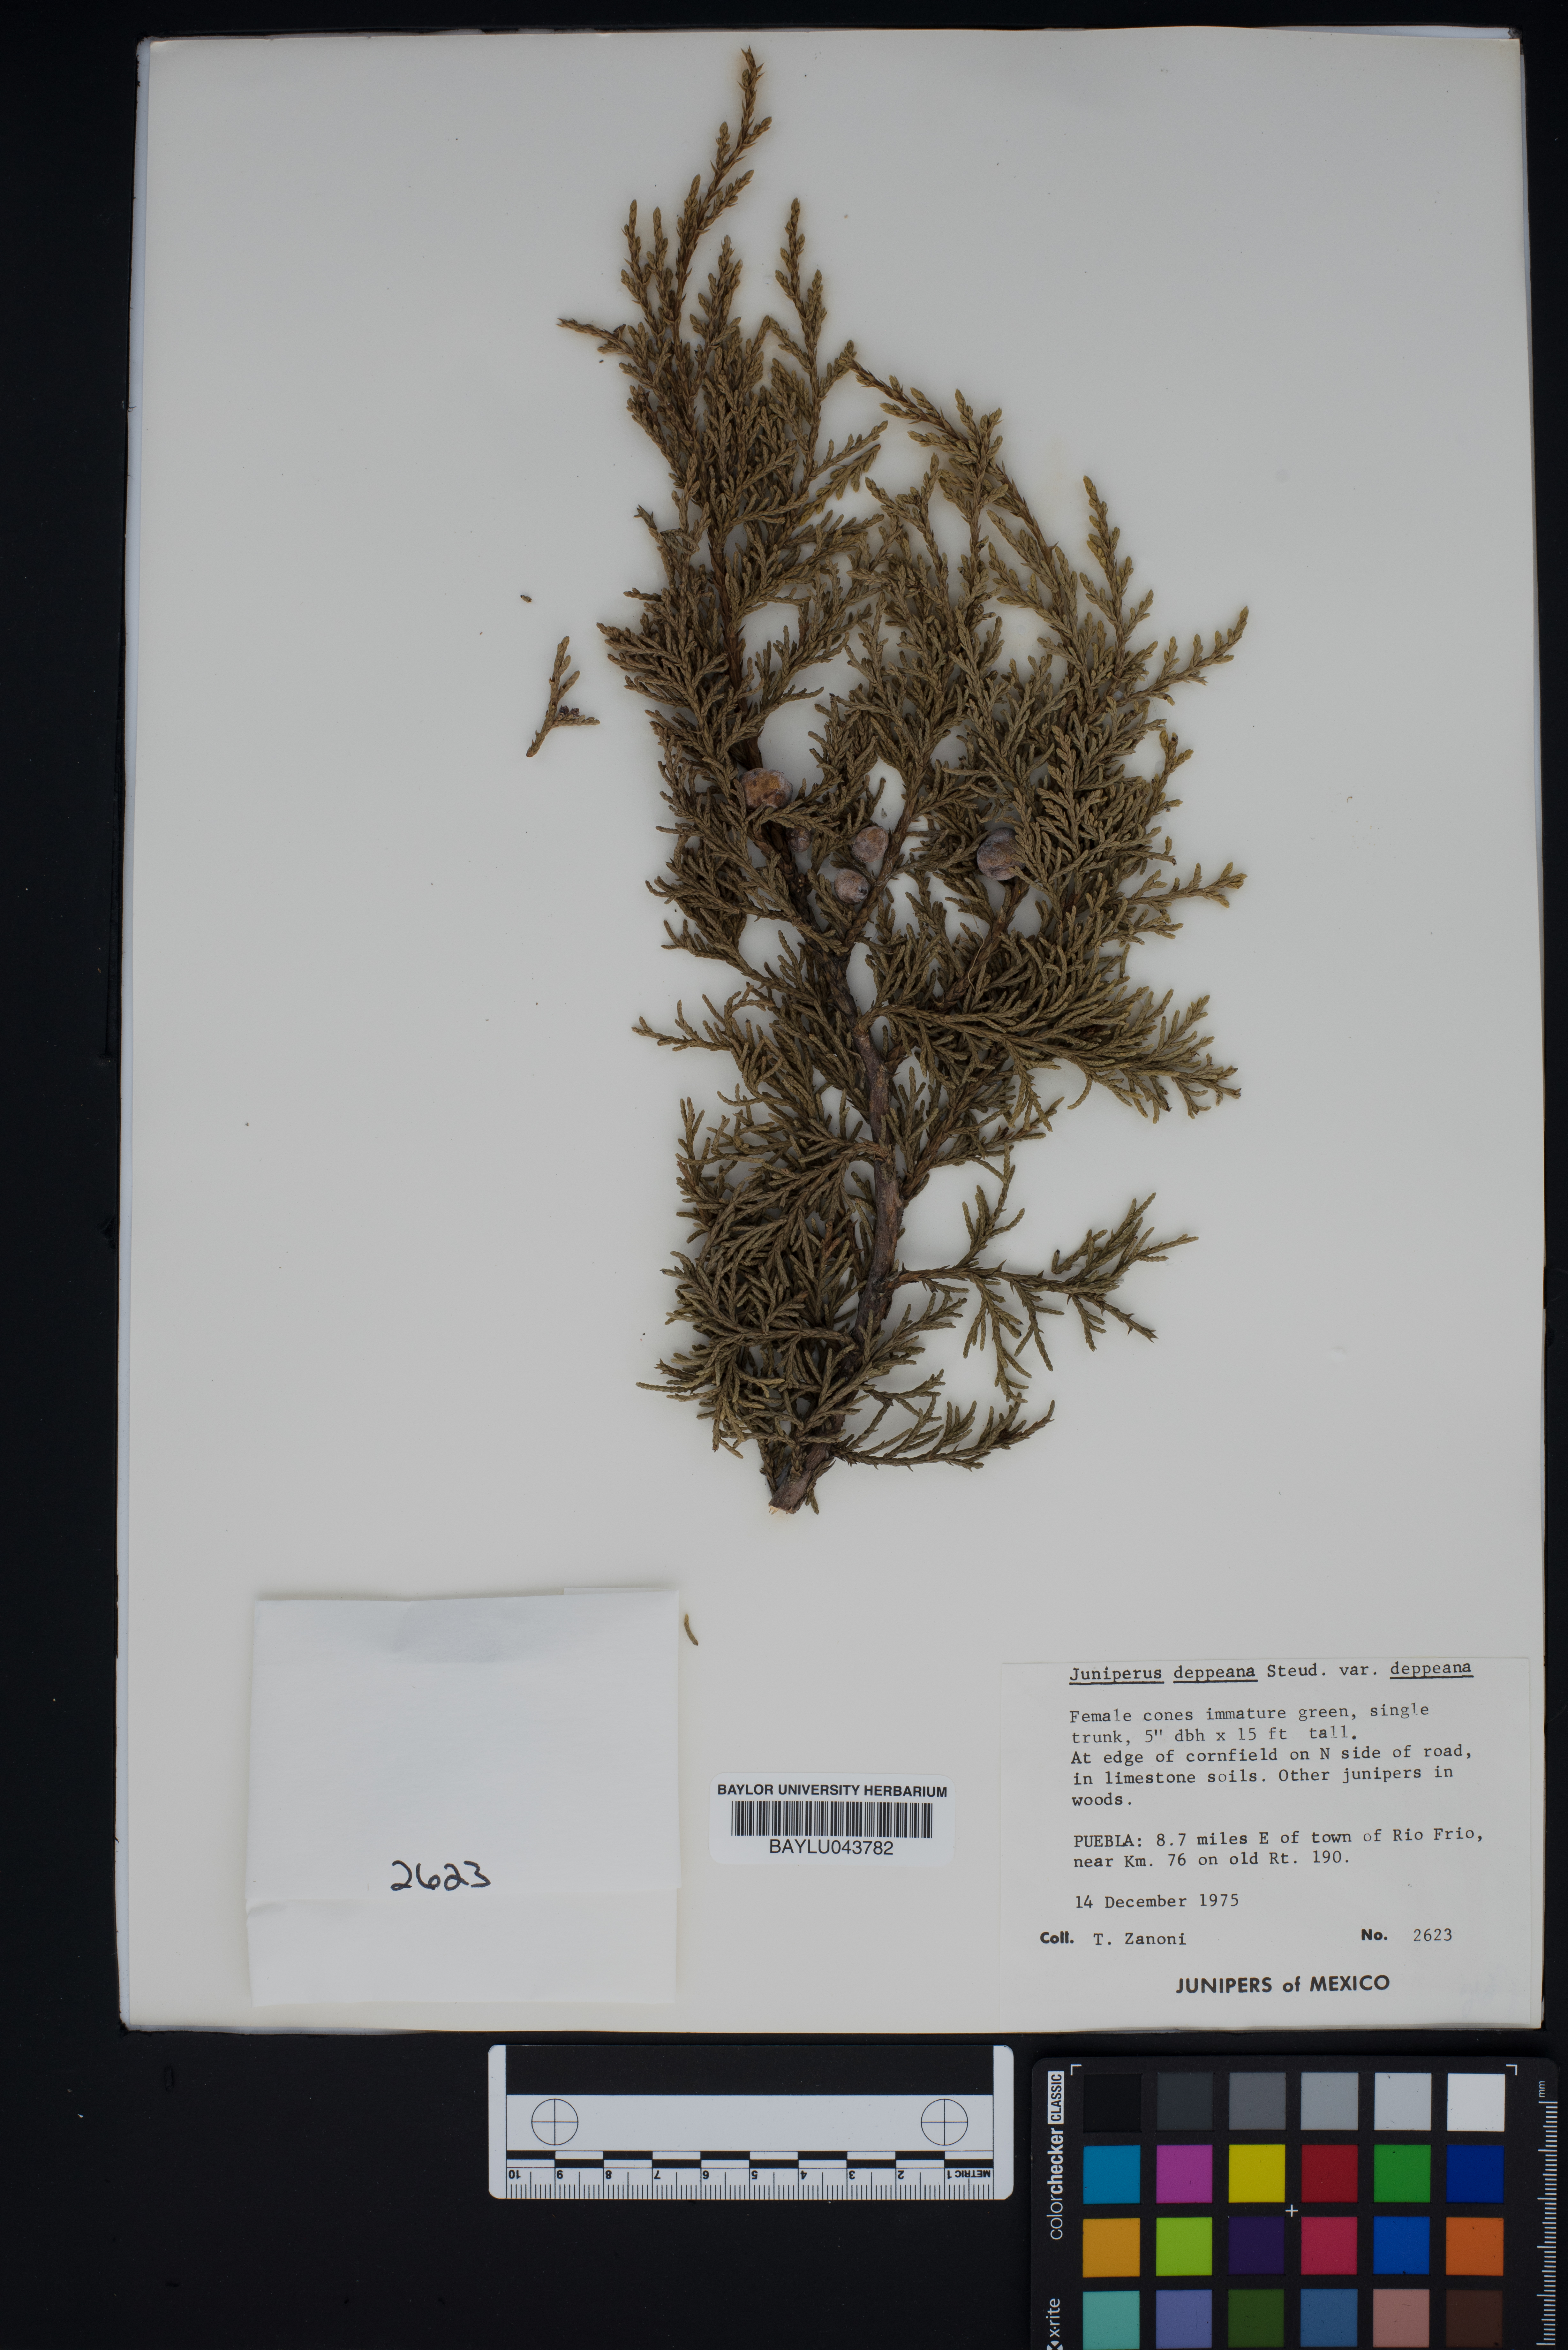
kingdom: Plantae
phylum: Tracheophyta
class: Pinopsida
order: Pinales
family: Cupressaceae
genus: Juniperus
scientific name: Juniperus deppeana
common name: Alligator juniper
